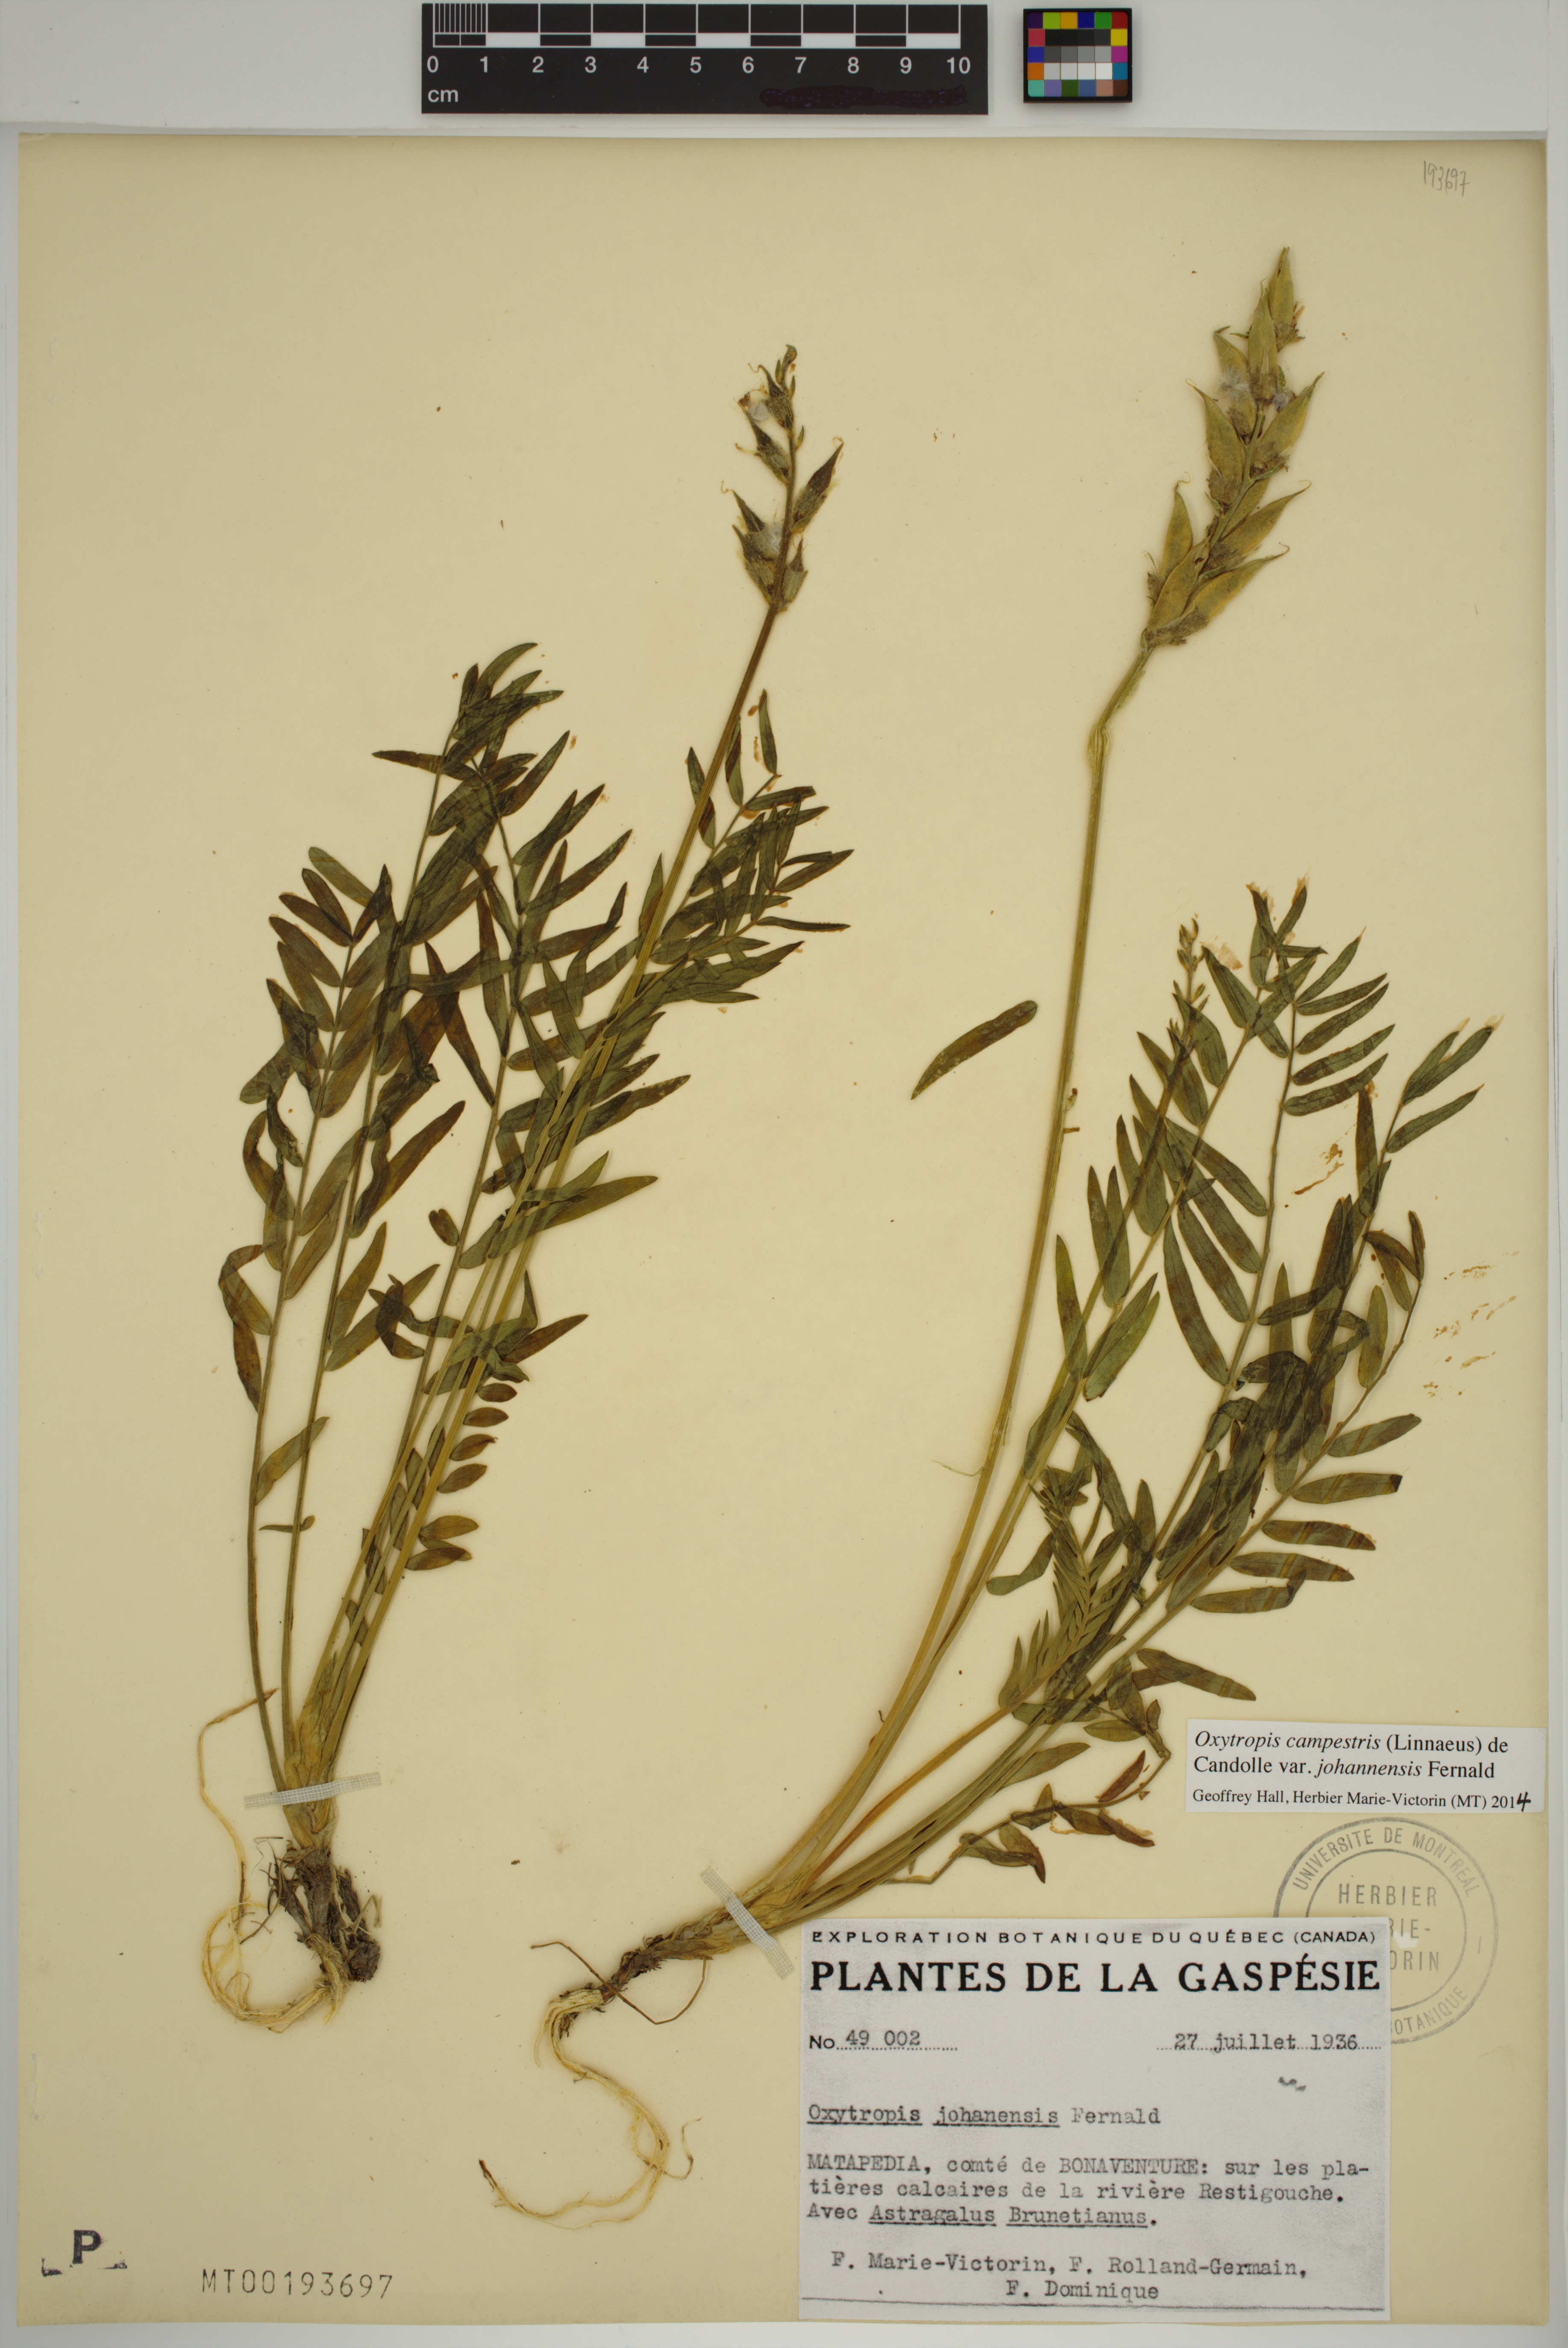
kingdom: Plantae
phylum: Tracheophyta
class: Magnoliopsida
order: Fabales
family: Fabaceae
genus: Oxytropis
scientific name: Oxytropis campestris
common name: Field locoweed
